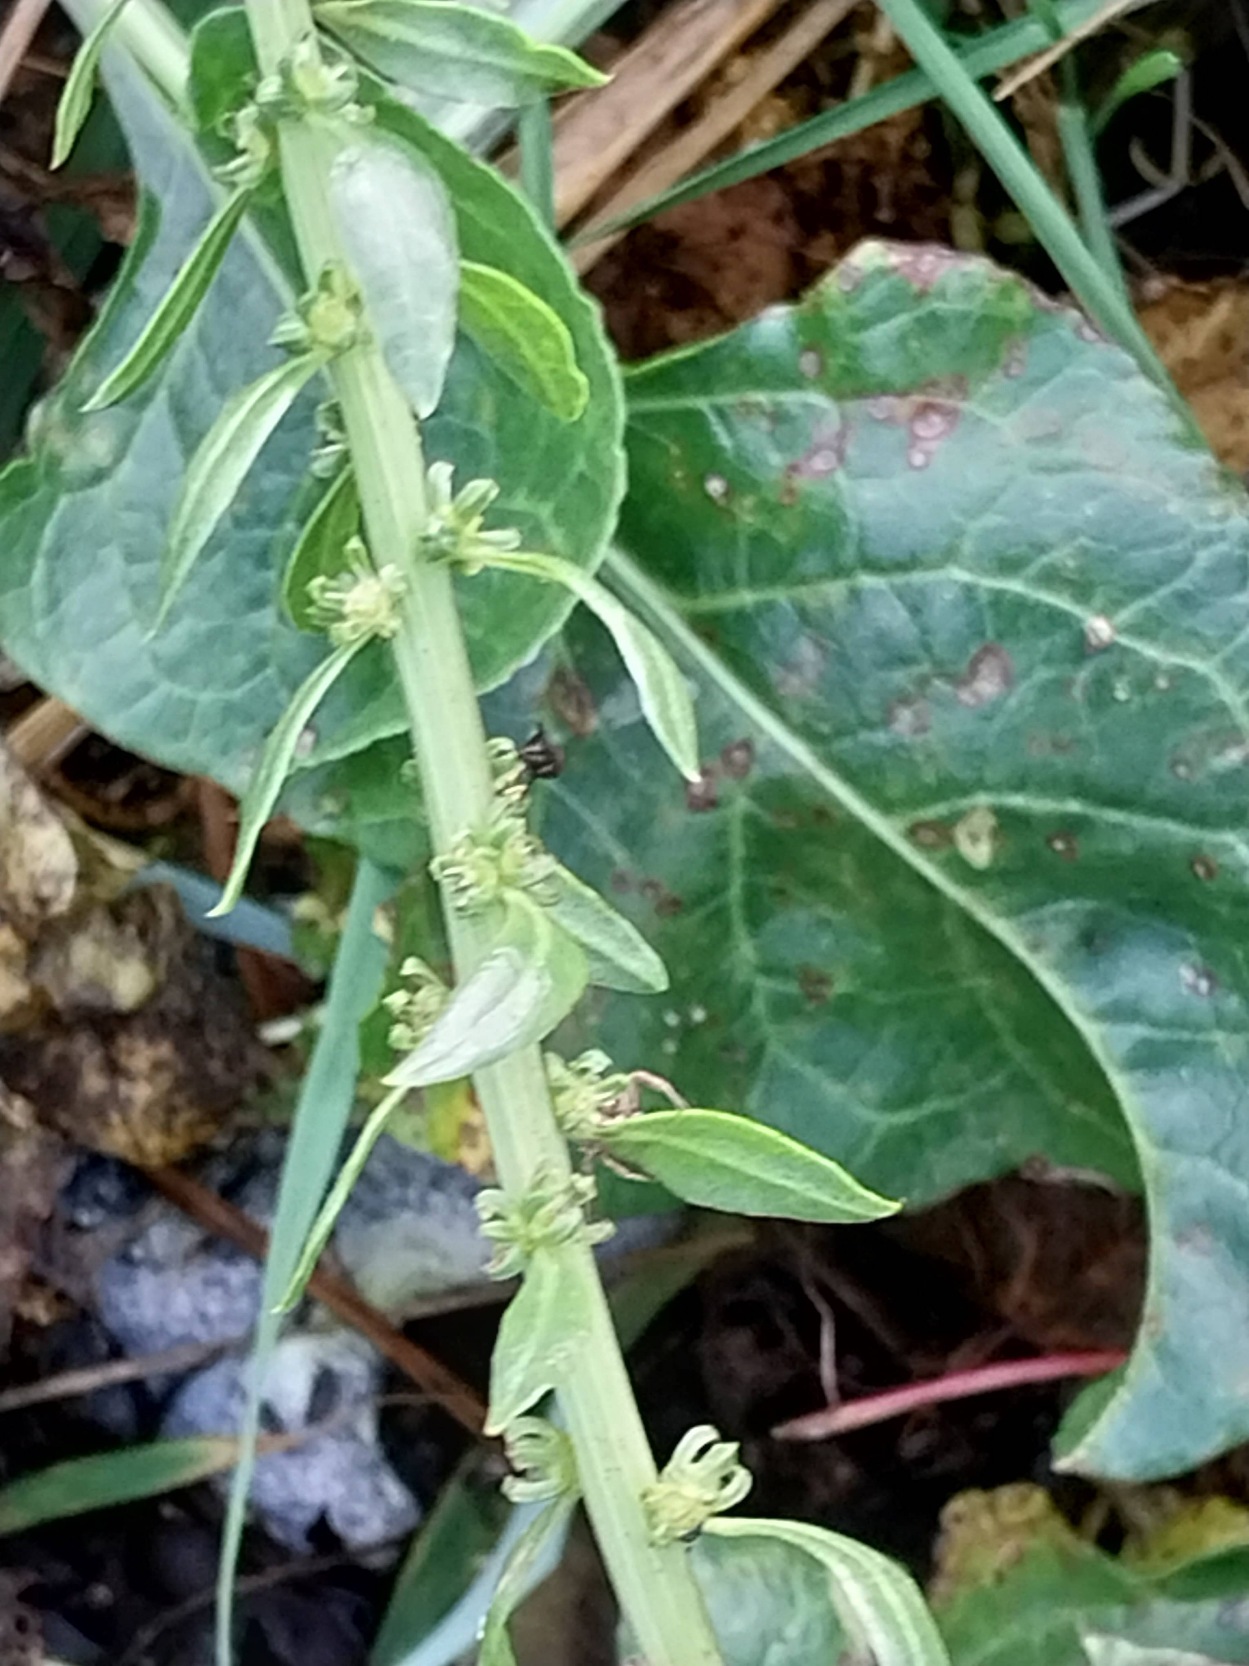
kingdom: Plantae
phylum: Tracheophyta
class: Magnoliopsida
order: Caryophyllales
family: Amaranthaceae
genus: Beta
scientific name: Beta maritima
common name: Strand-bede
